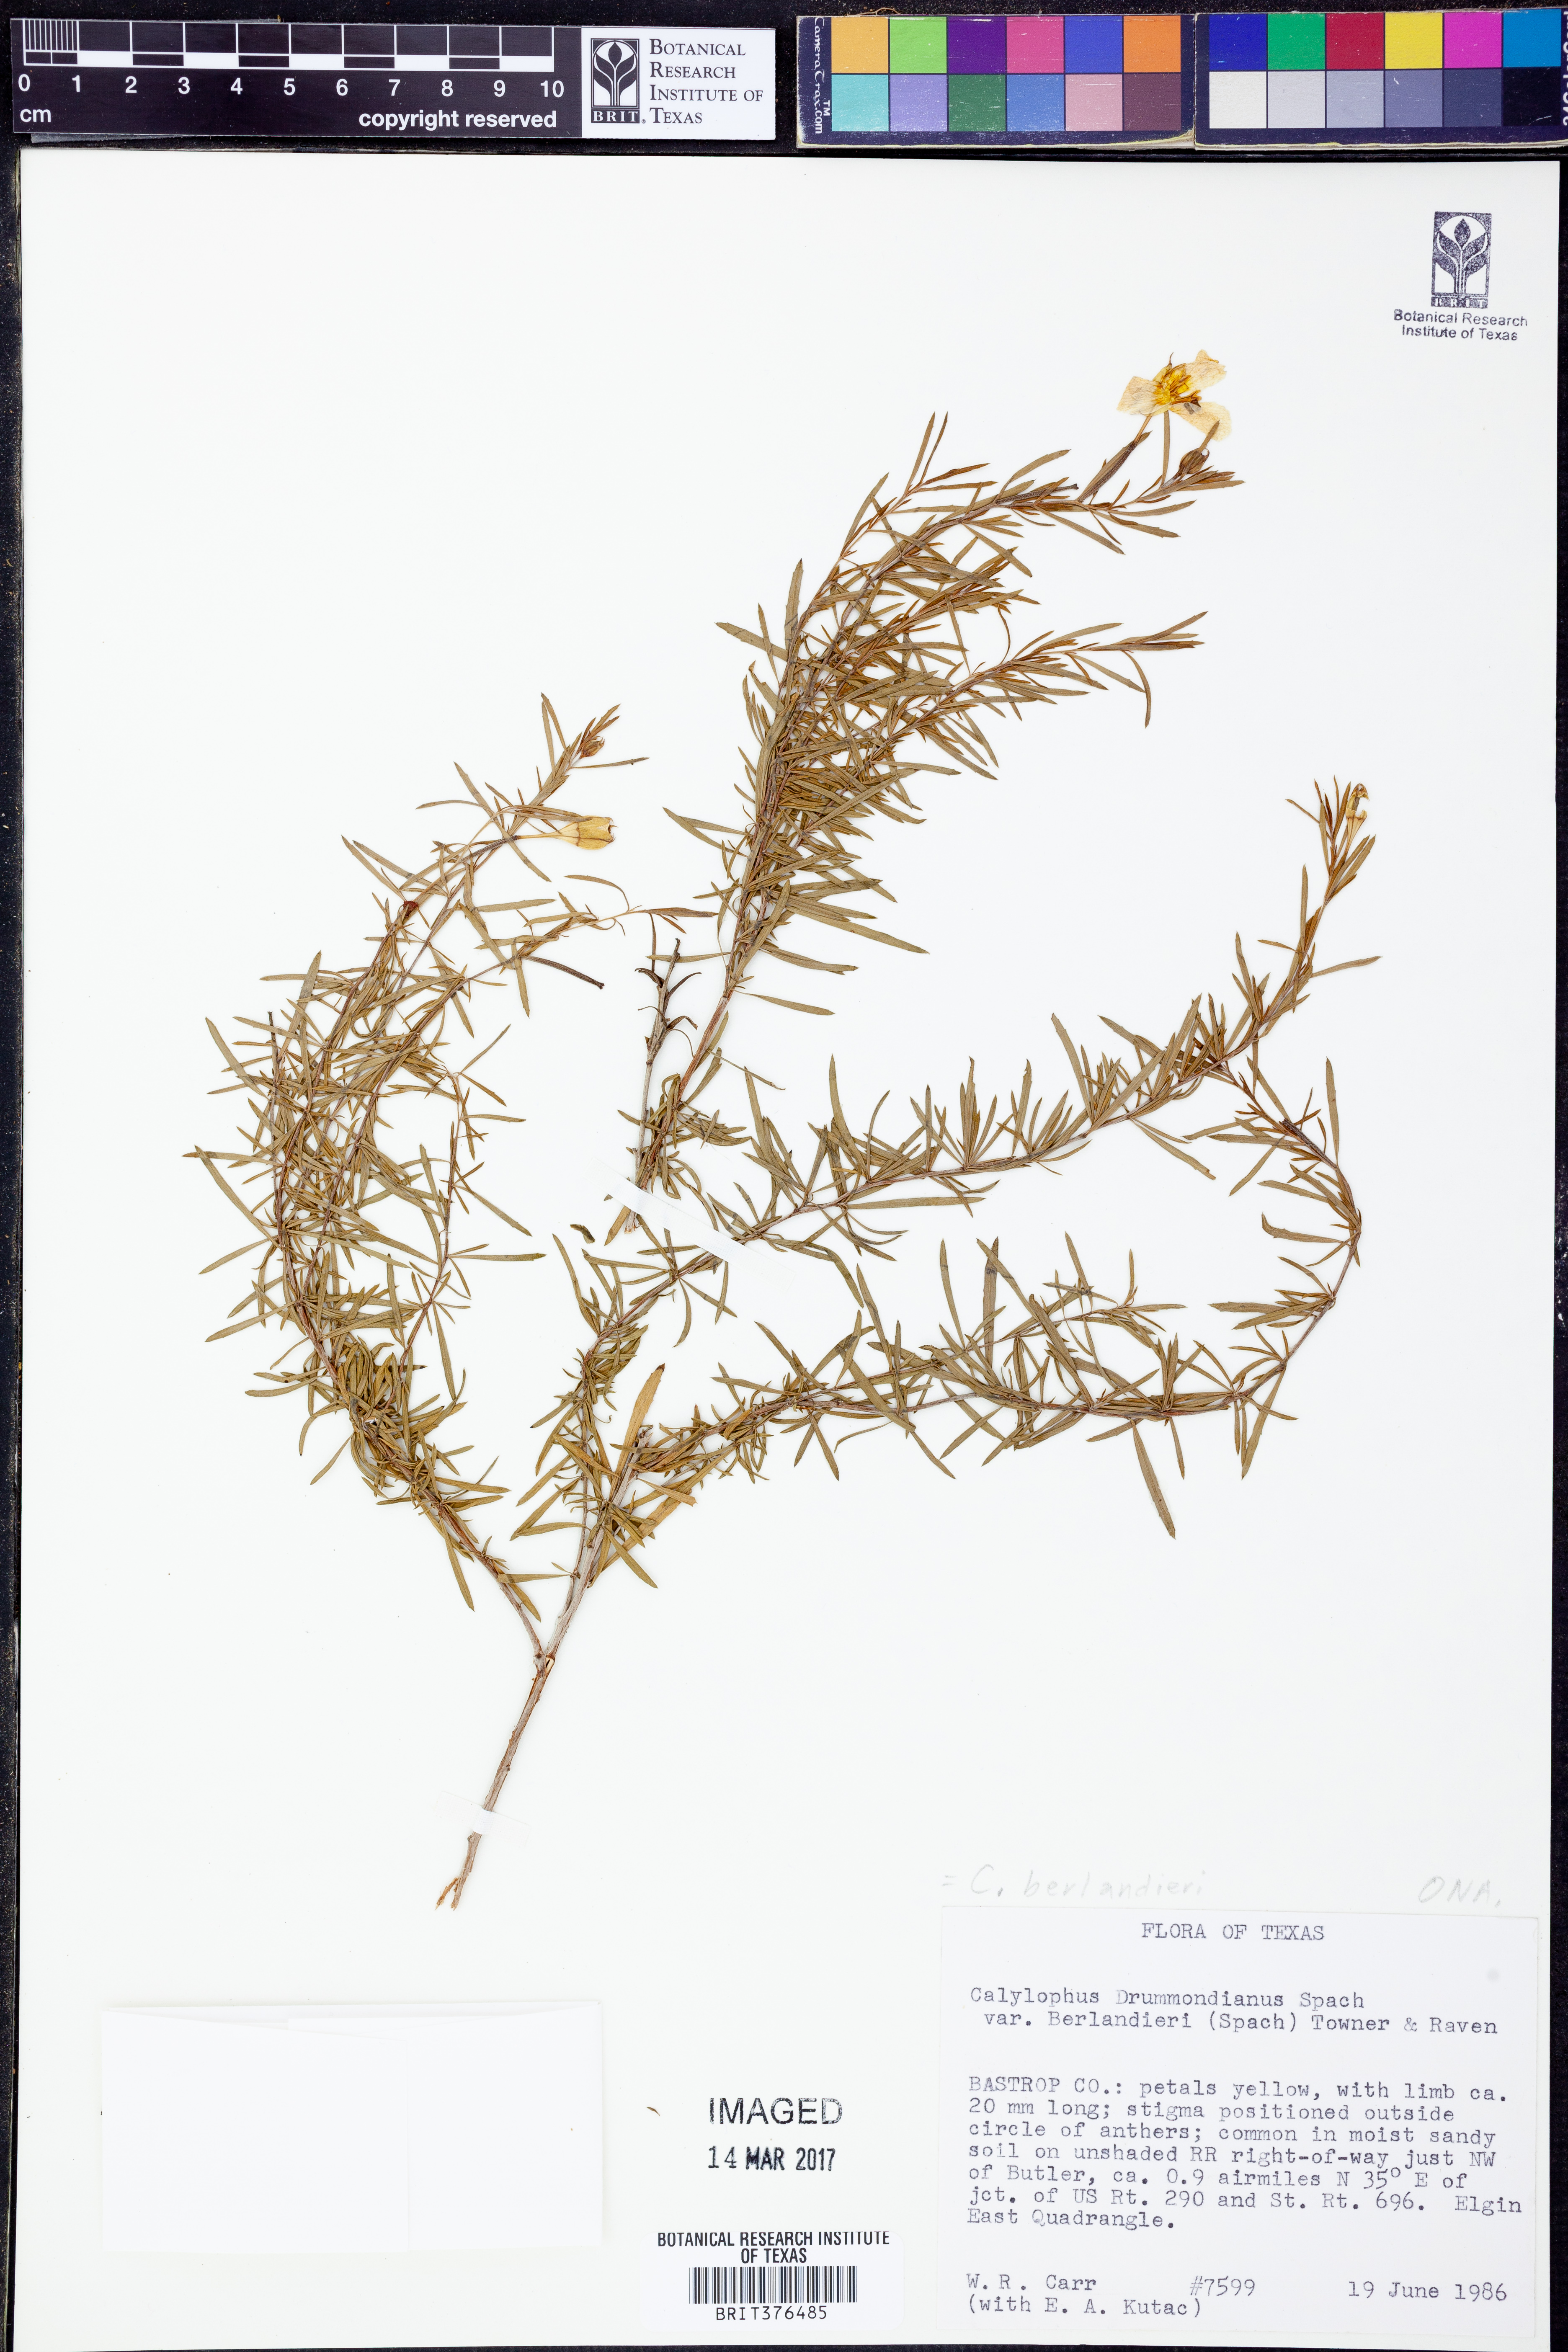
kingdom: Plantae
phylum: Tracheophyta
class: Magnoliopsida
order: Myrtales
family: Onagraceae
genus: Oenothera
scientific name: Oenothera capillifolia
